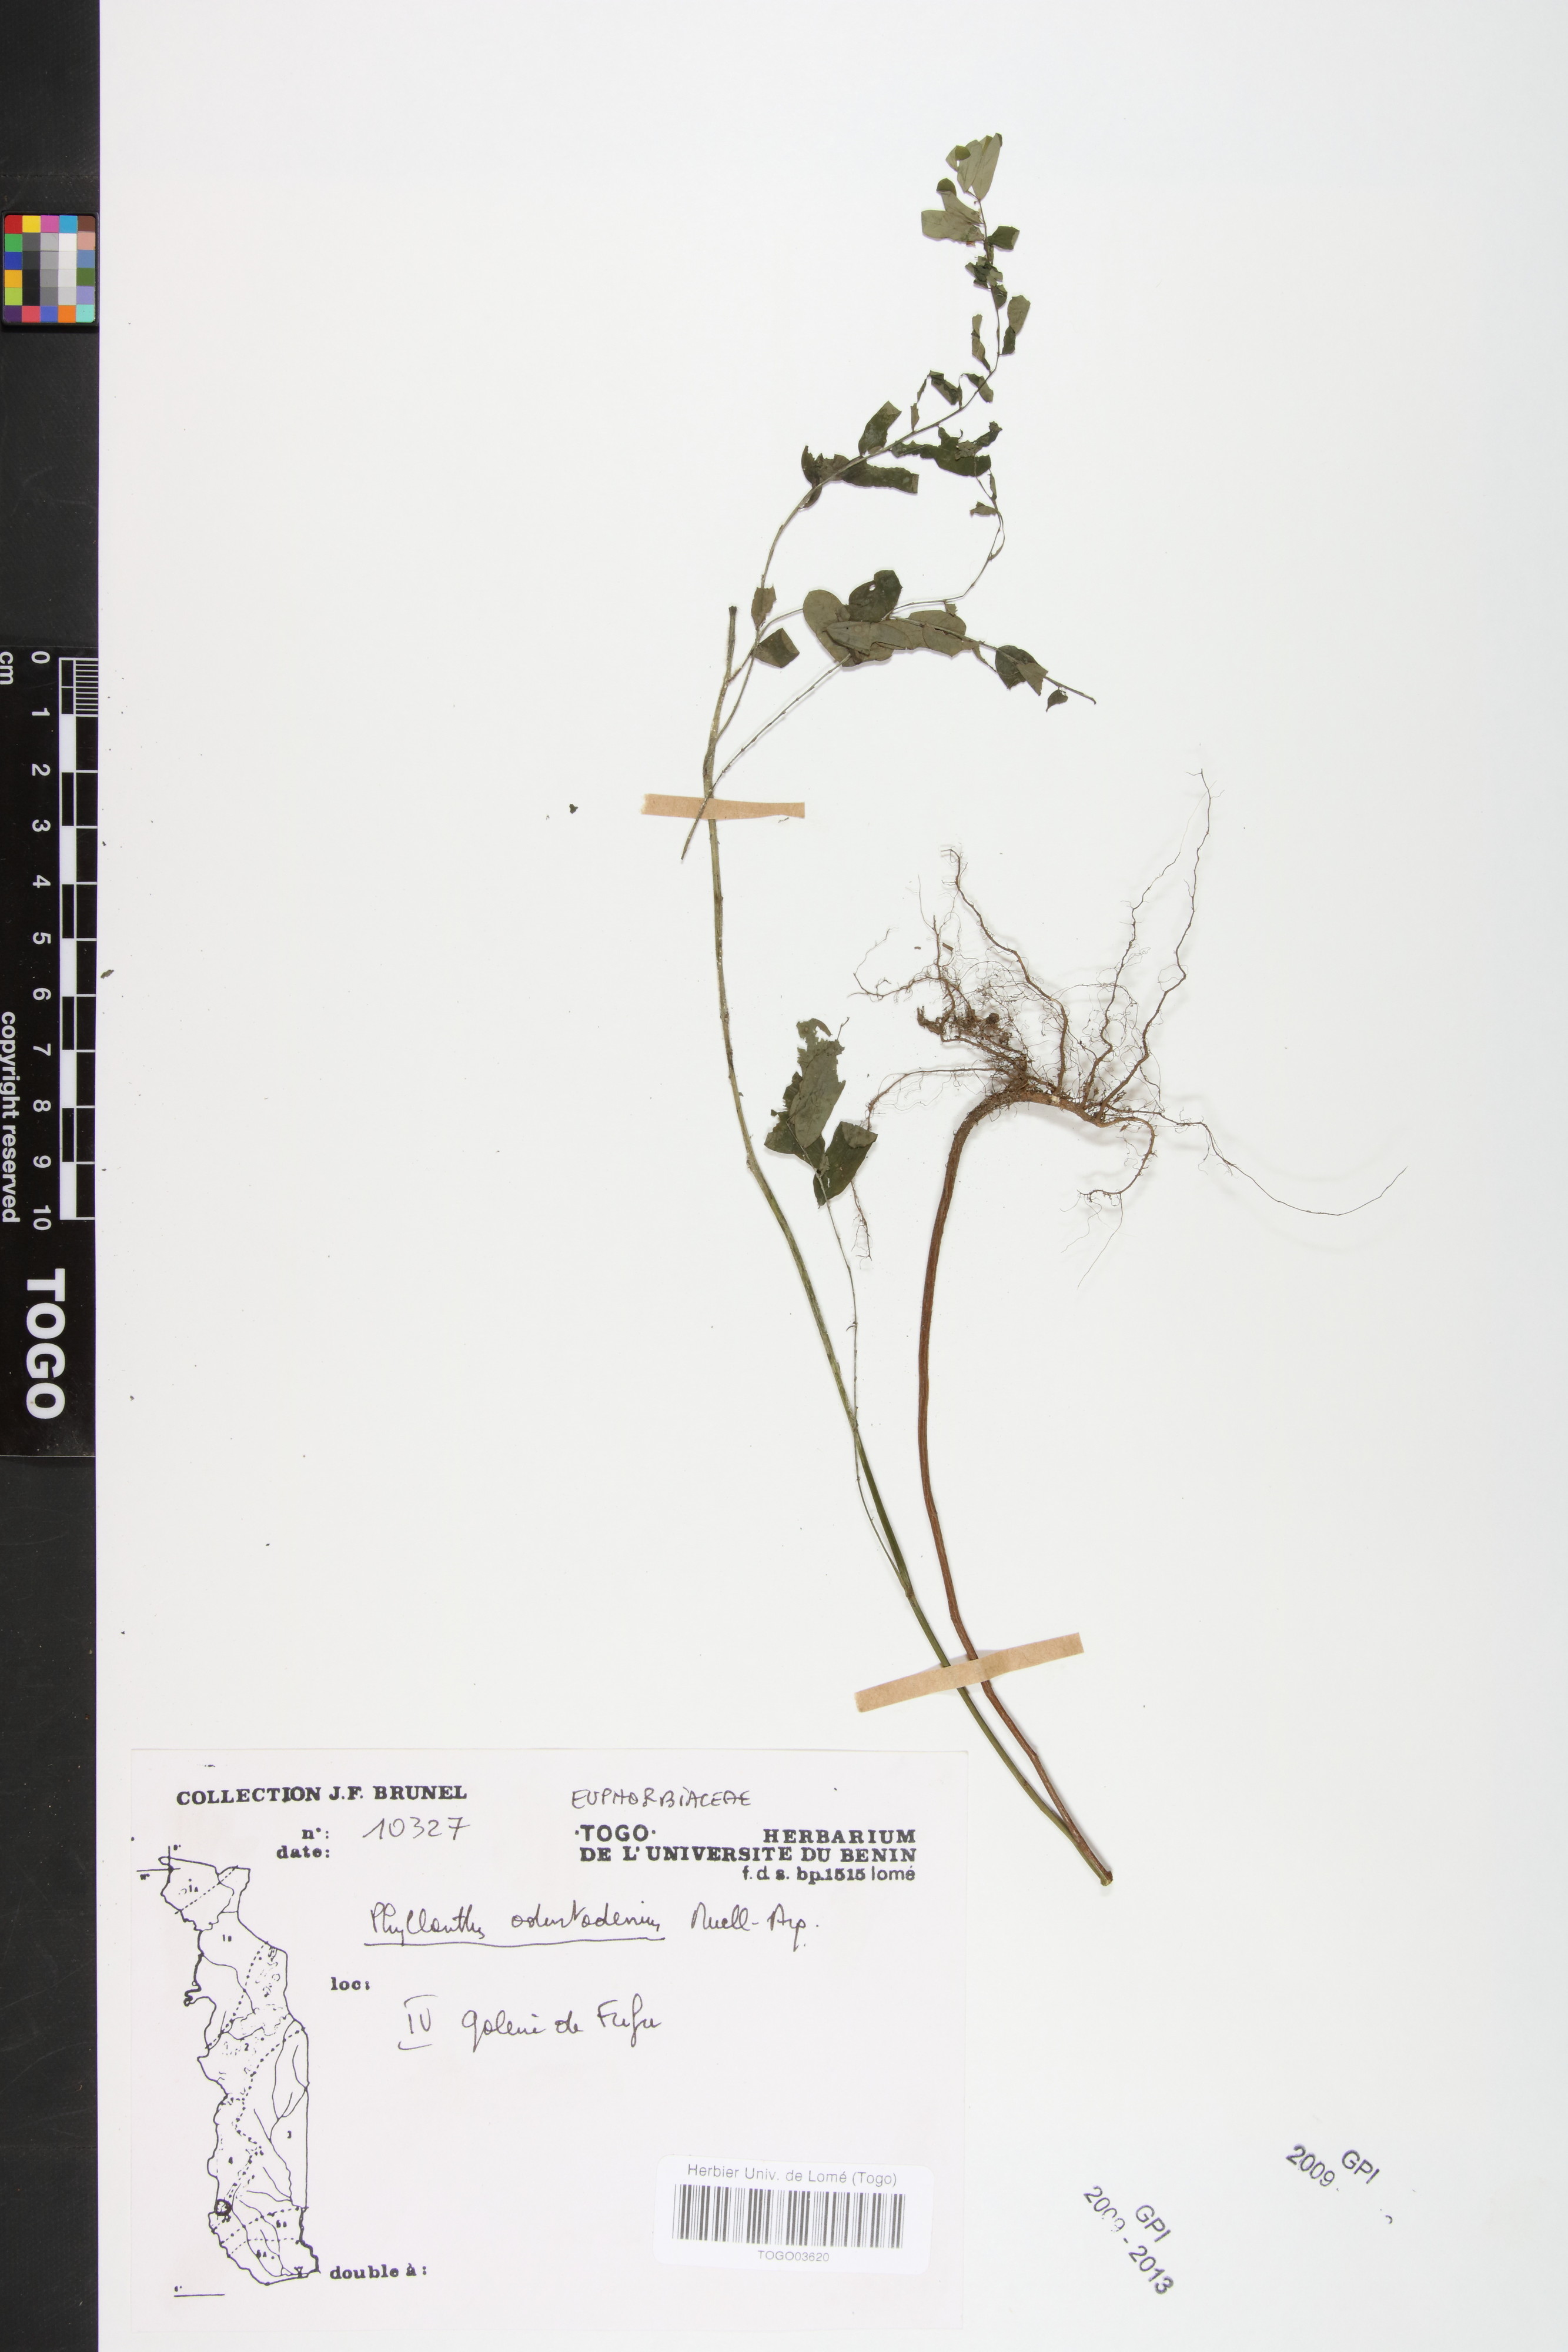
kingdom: Plantae
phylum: Tracheophyta
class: Magnoliopsida
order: Malpighiales
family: Phyllanthaceae
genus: Phyllanthus
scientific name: Phyllanthus odontadenius
